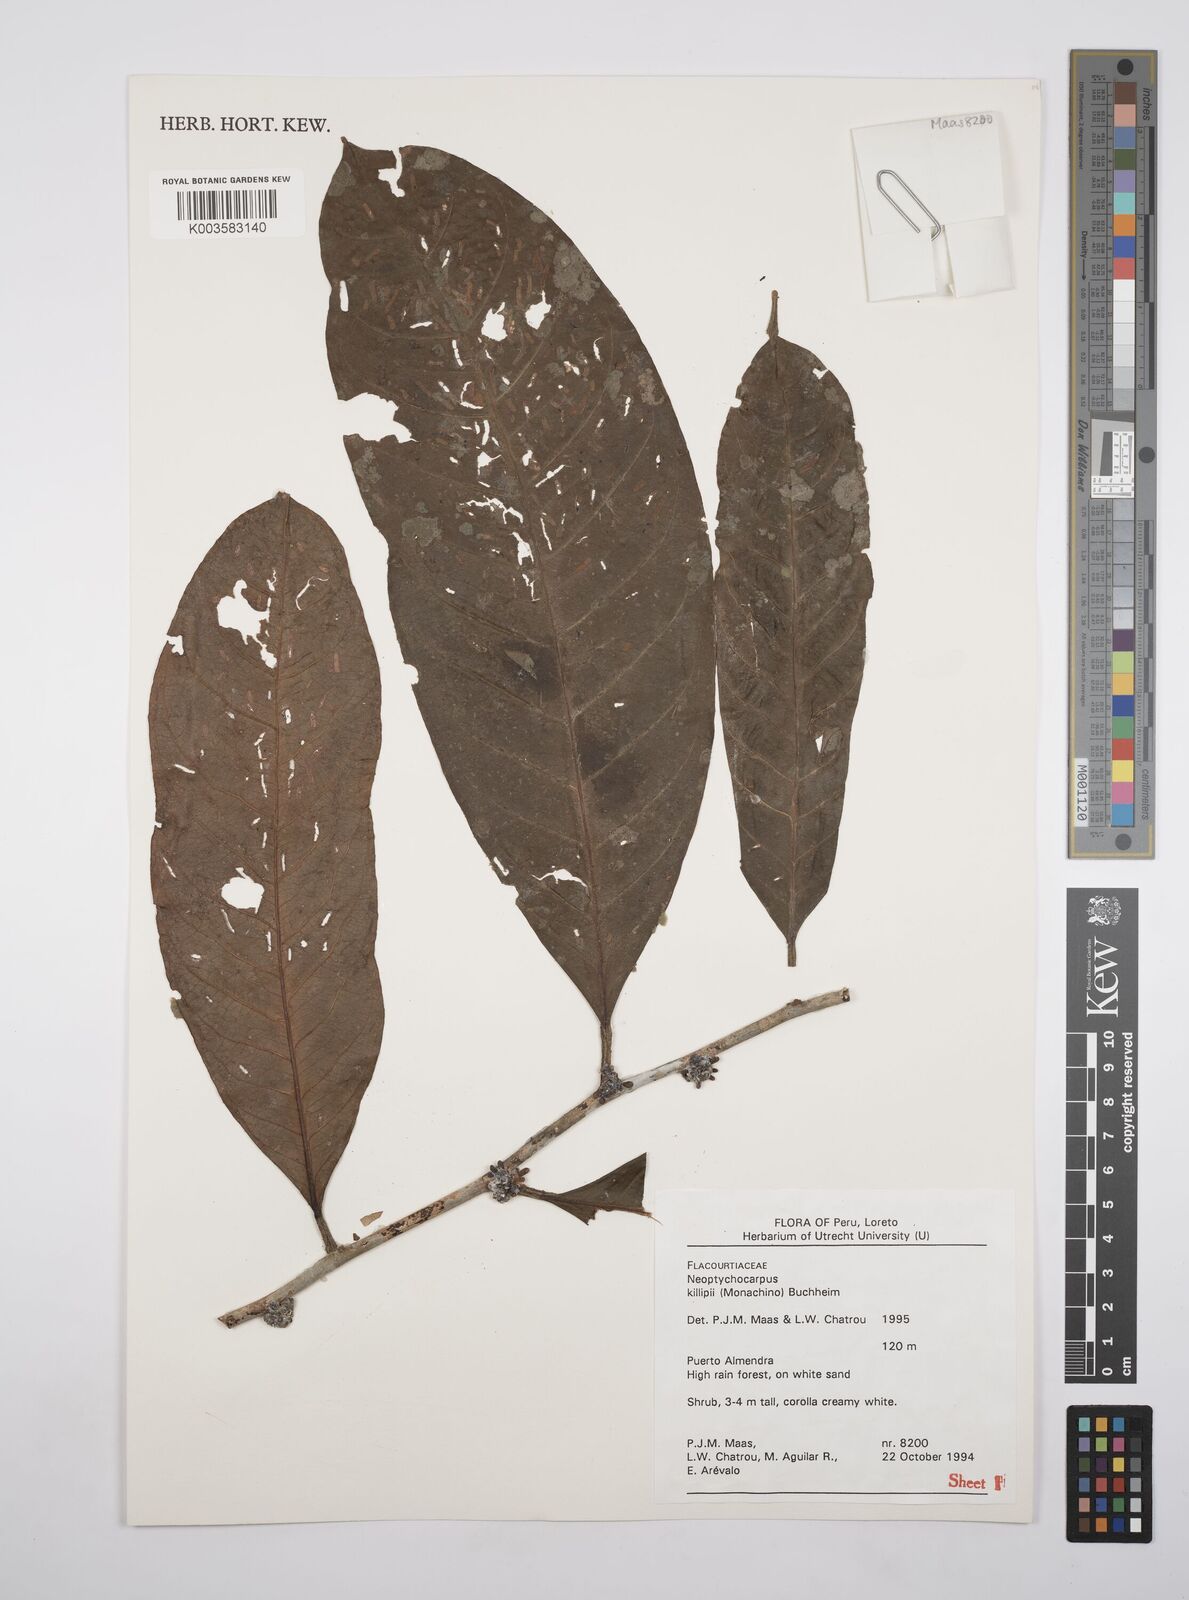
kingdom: Plantae
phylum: Tracheophyta
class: Magnoliopsida
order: Malpighiales
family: Salicaceae
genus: Casearia
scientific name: Casearia killipii
